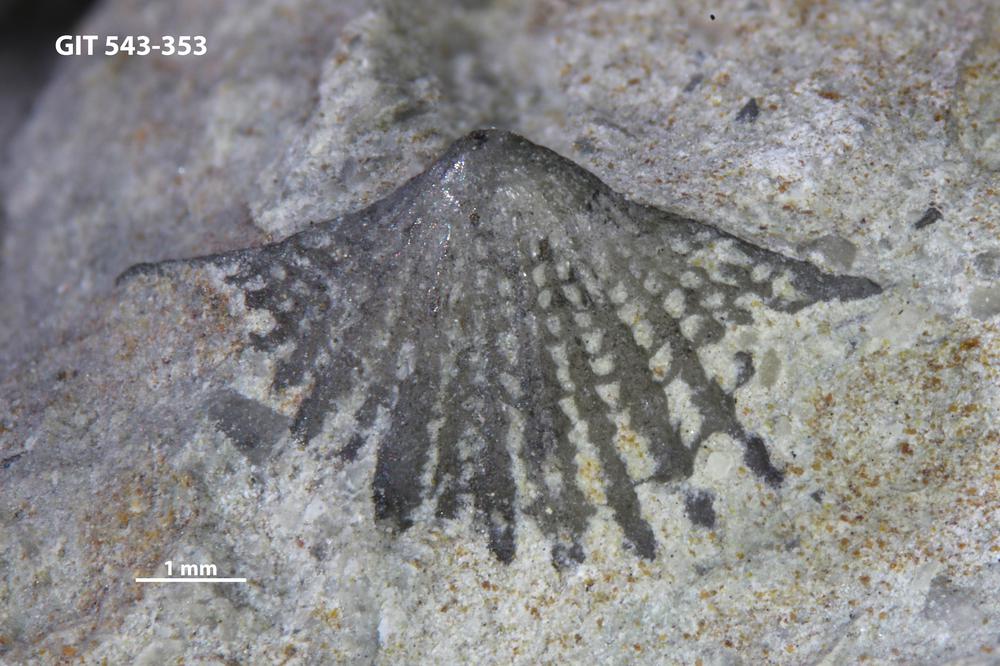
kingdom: Animalia
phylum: Brachiopoda
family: Kullervoidae
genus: Kullervo
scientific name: Kullervo lacunata
